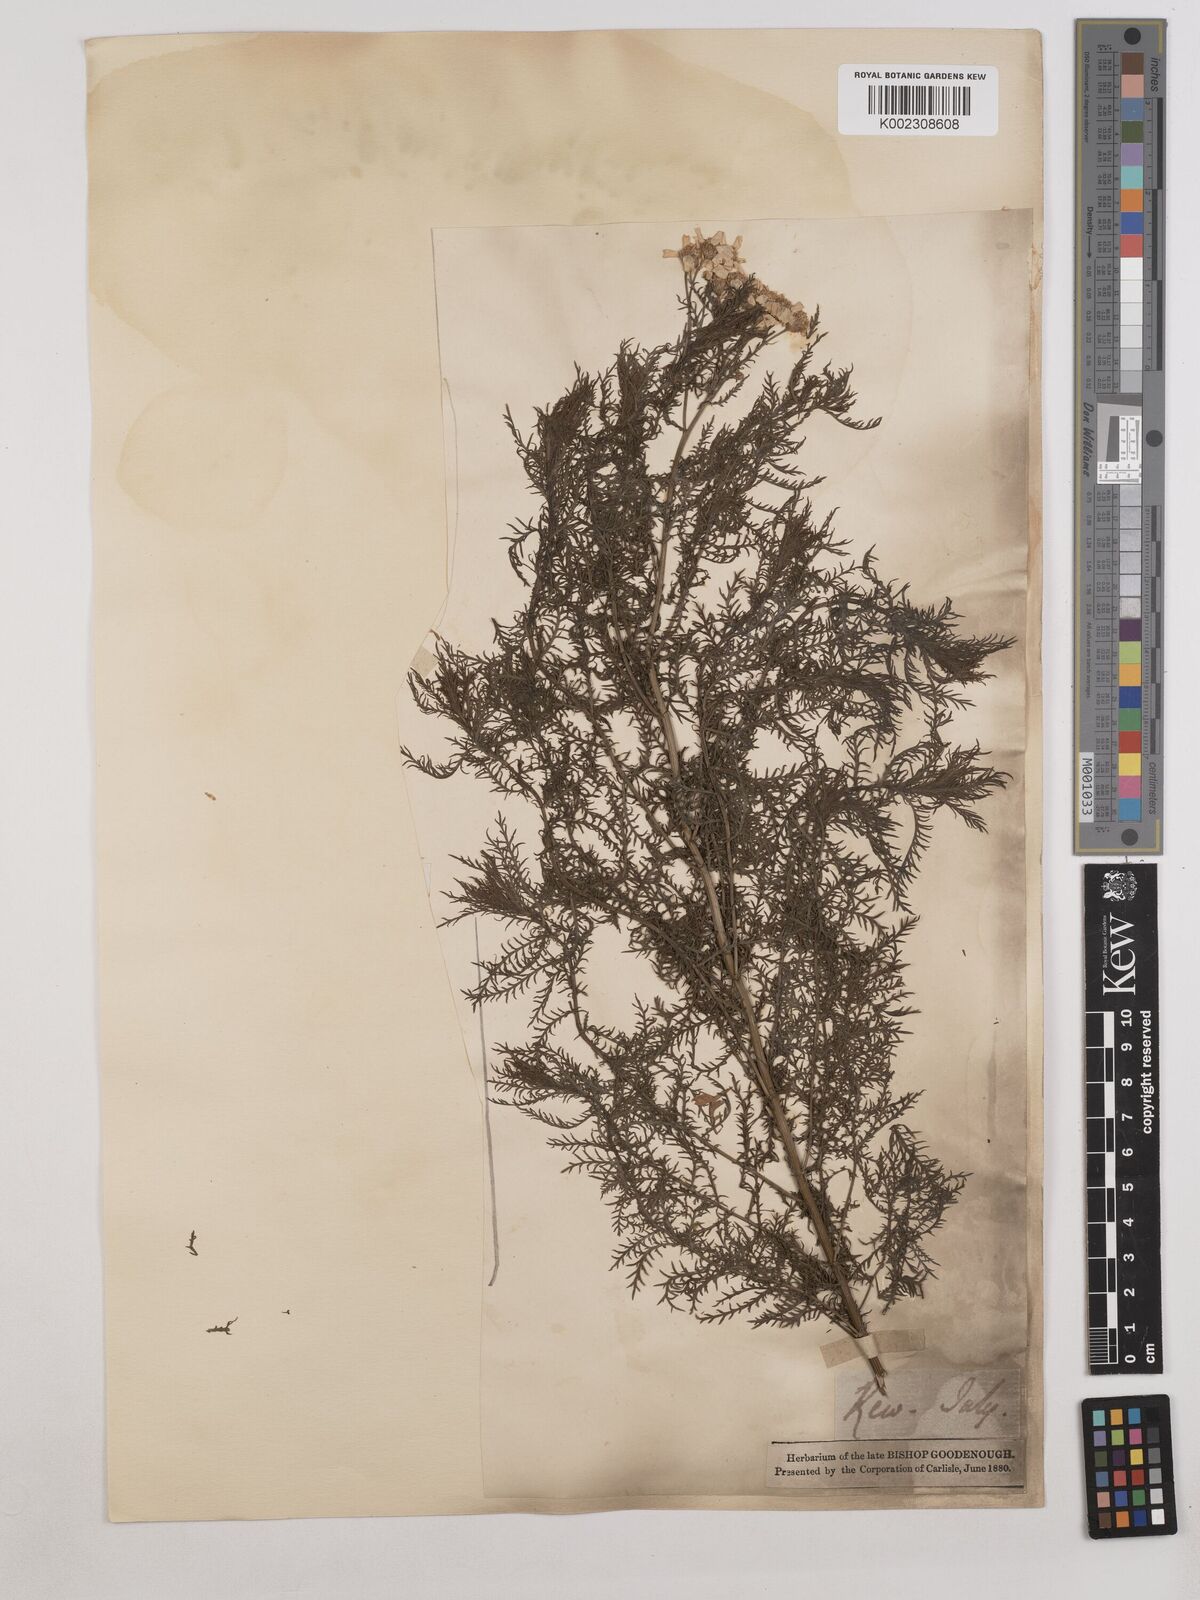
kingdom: Plantae
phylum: Tracheophyta
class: Magnoliopsida
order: Asterales
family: Asteraceae
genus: Achillea
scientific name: Achillea impatiens
